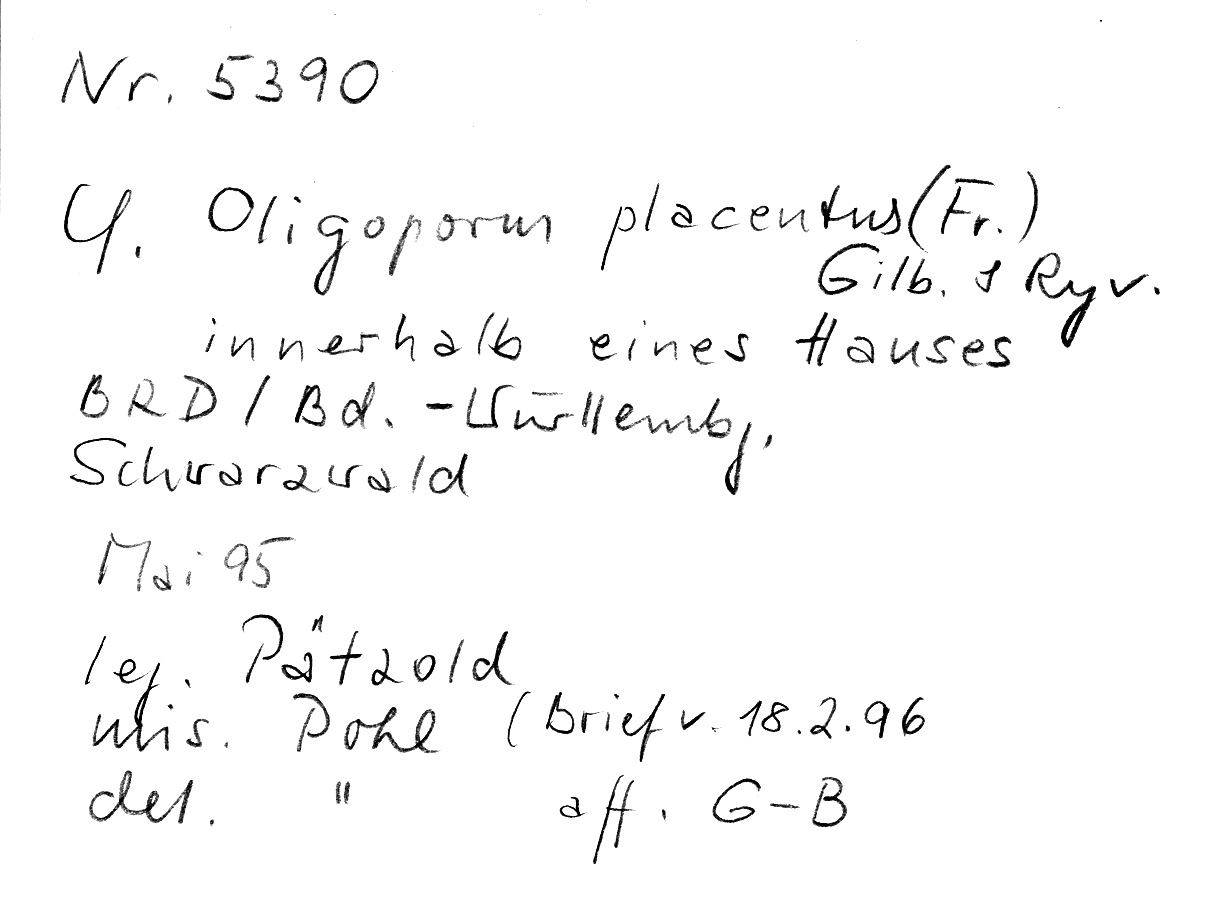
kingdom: Fungi
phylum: Basidiomycota
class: Agaricomycetes
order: Polyporales
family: Polyporaceae
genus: Rhodonia
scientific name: Rhodonia placenta
